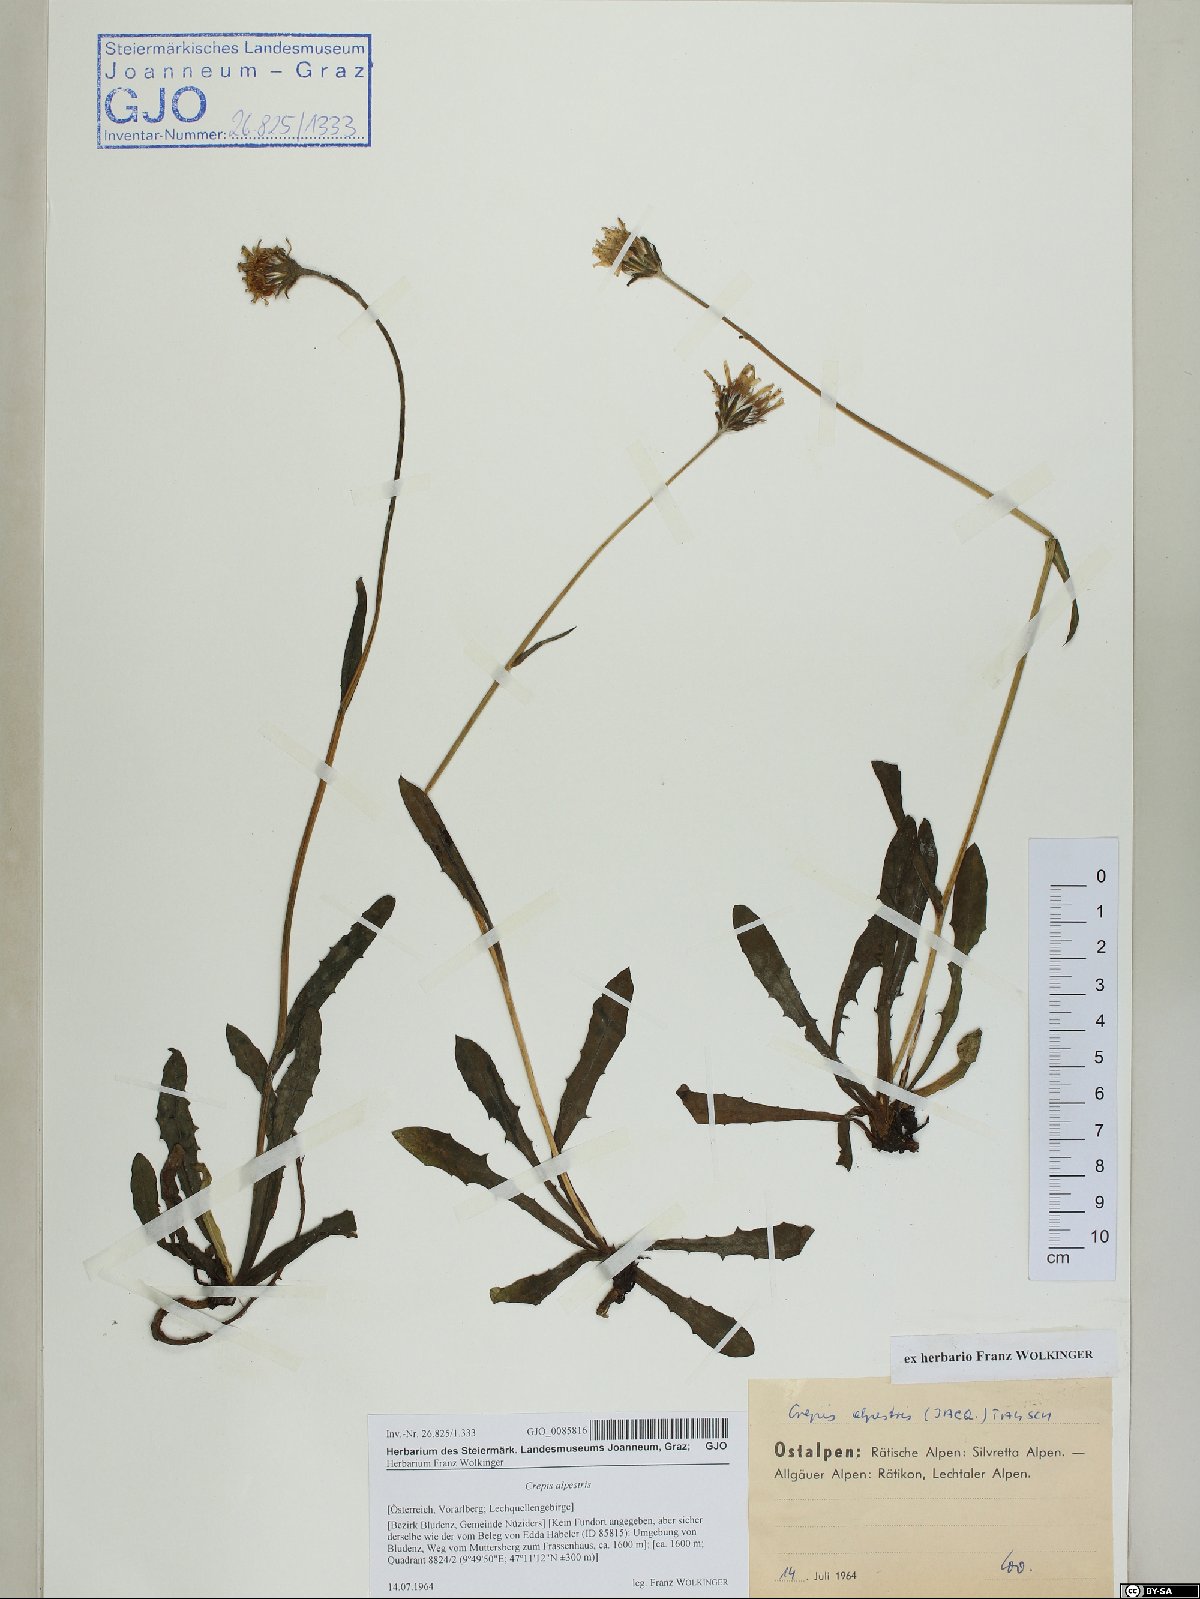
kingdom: Plantae
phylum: Tracheophyta
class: Magnoliopsida
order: Asterales
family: Asteraceae
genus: Crepis
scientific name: Crepis alpestris
